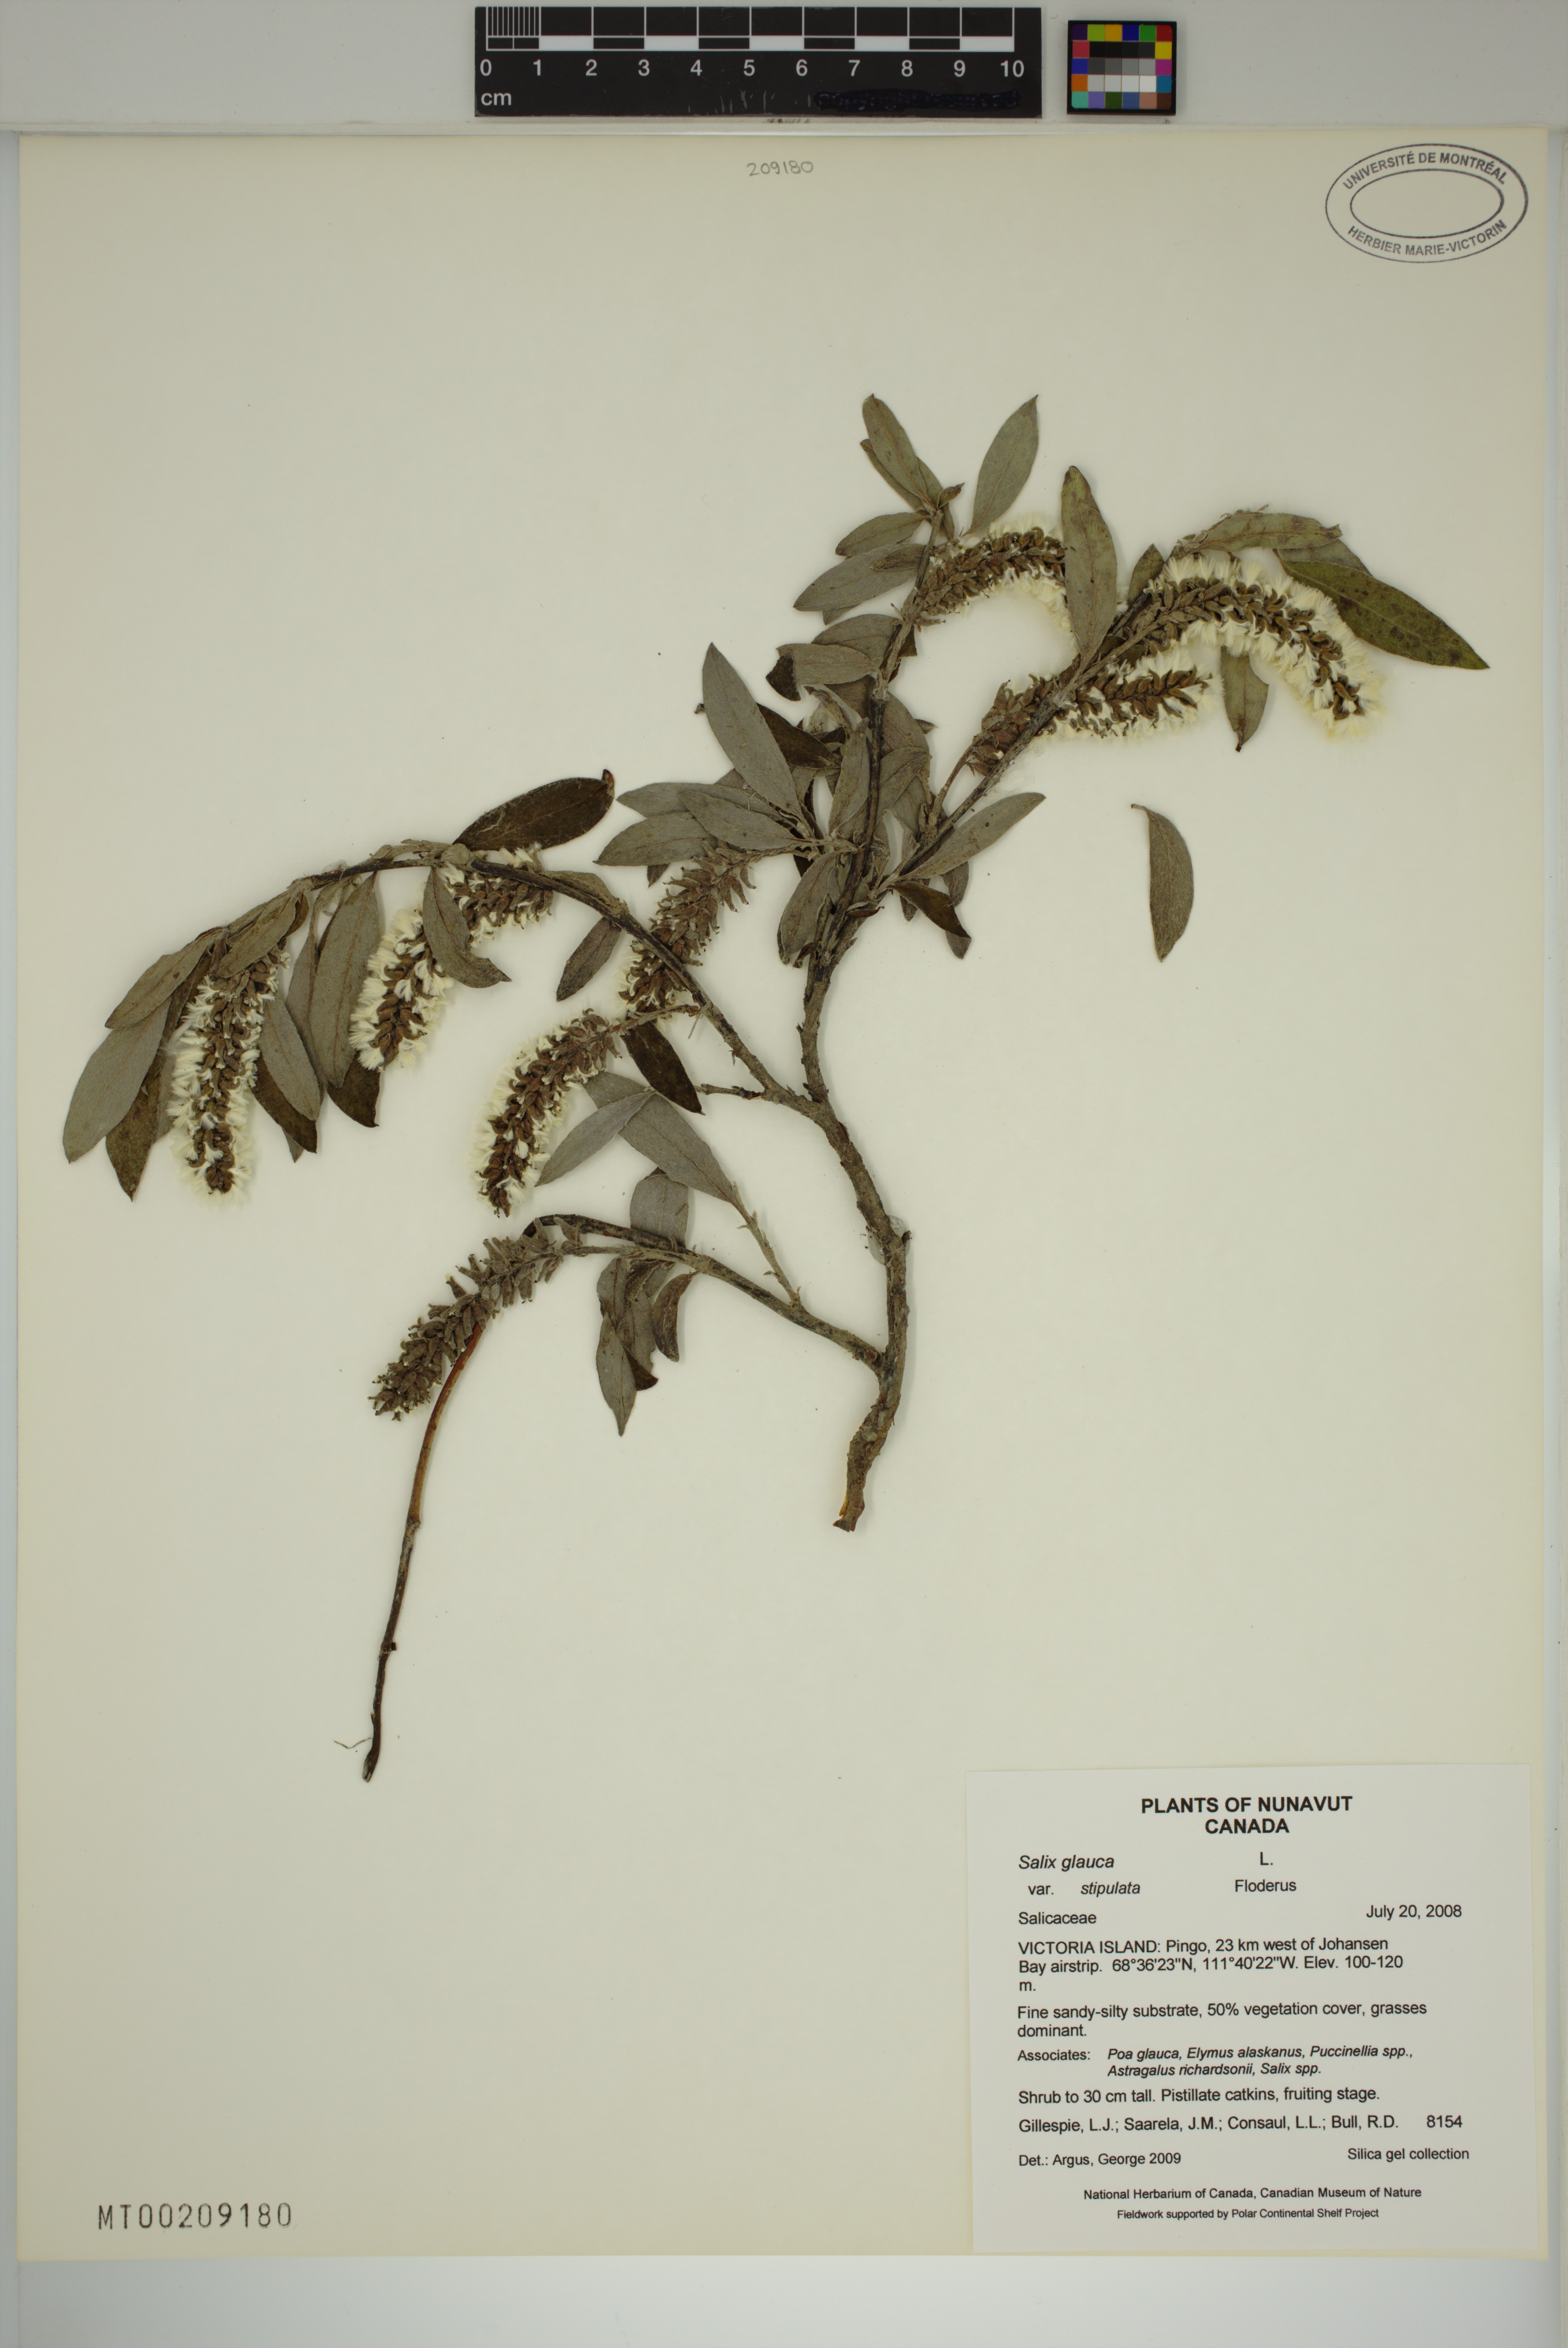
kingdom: Plantae
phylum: Tracheophyta
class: Magnoliopsida
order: Malpighiales
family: Salicaceae
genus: Salix
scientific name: Salix glauca
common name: Glaucous willow
